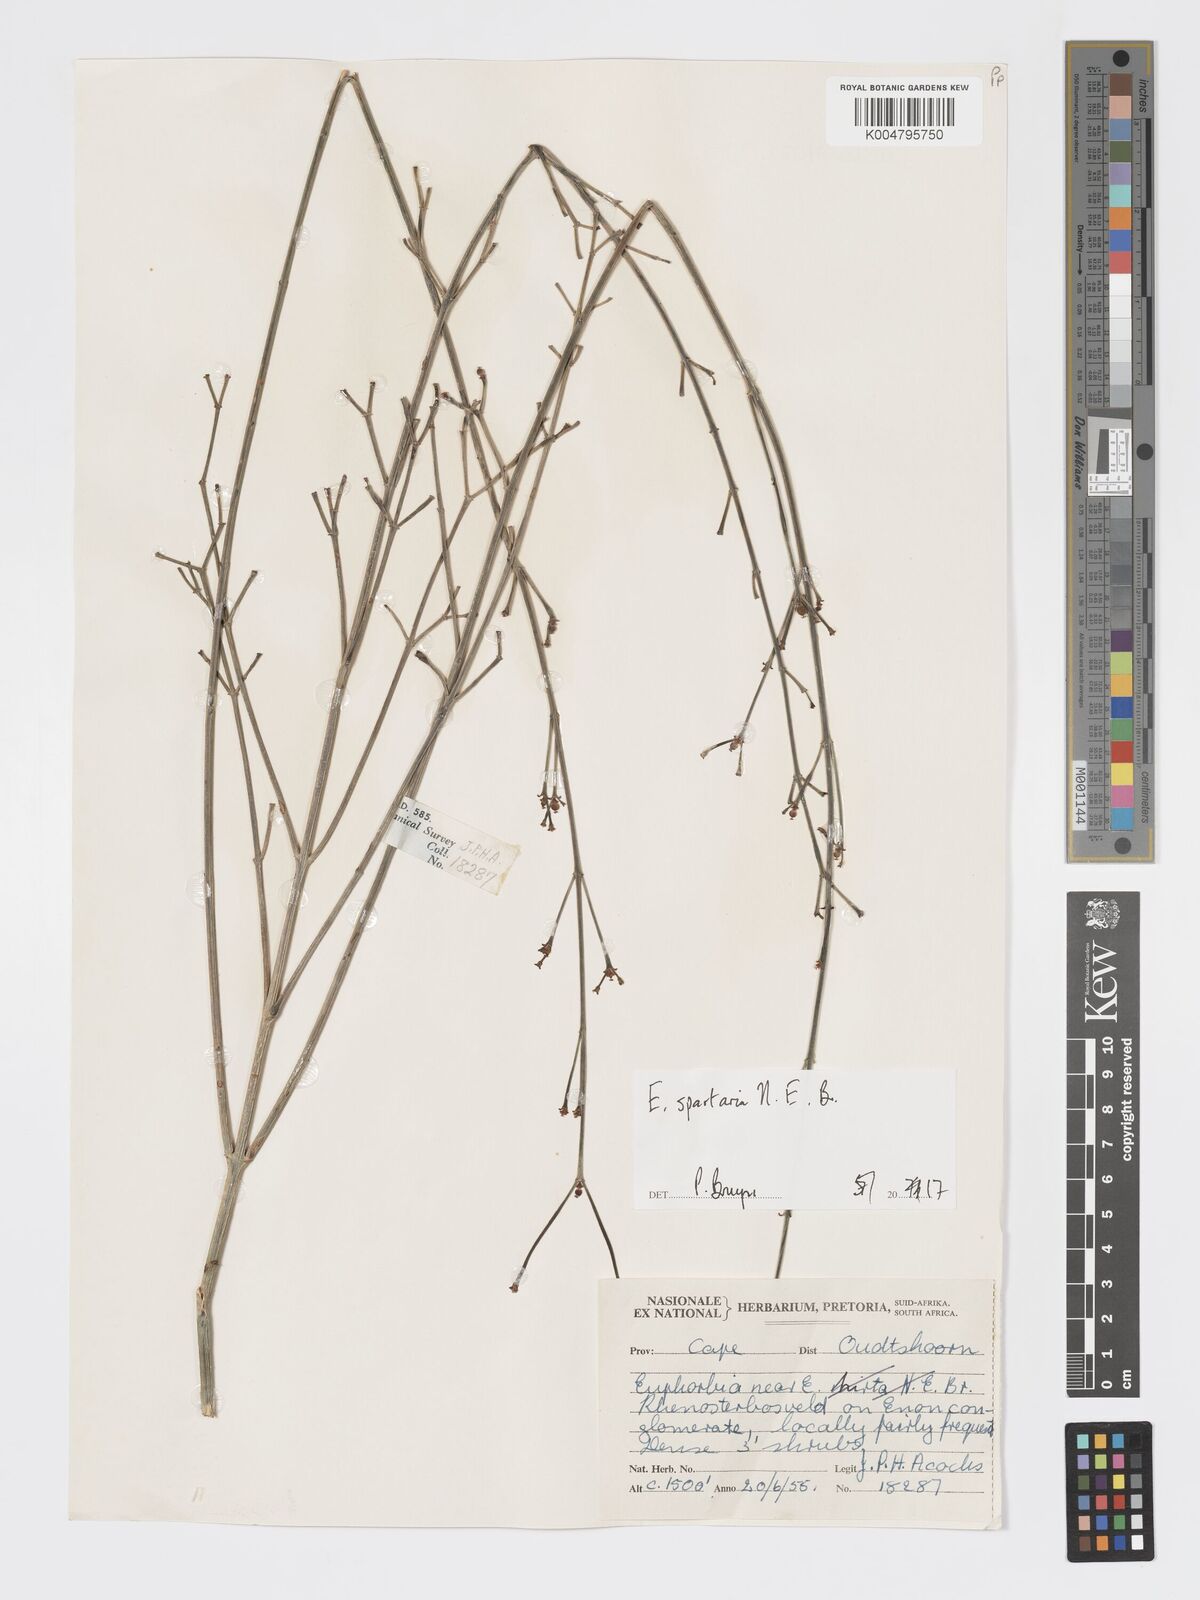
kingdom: Plantae
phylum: Tracheophyta
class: Magnoliopsida
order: Malpighiales
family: Euphorbiaceae
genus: Euphorbia
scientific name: Euphorbia spartaria
